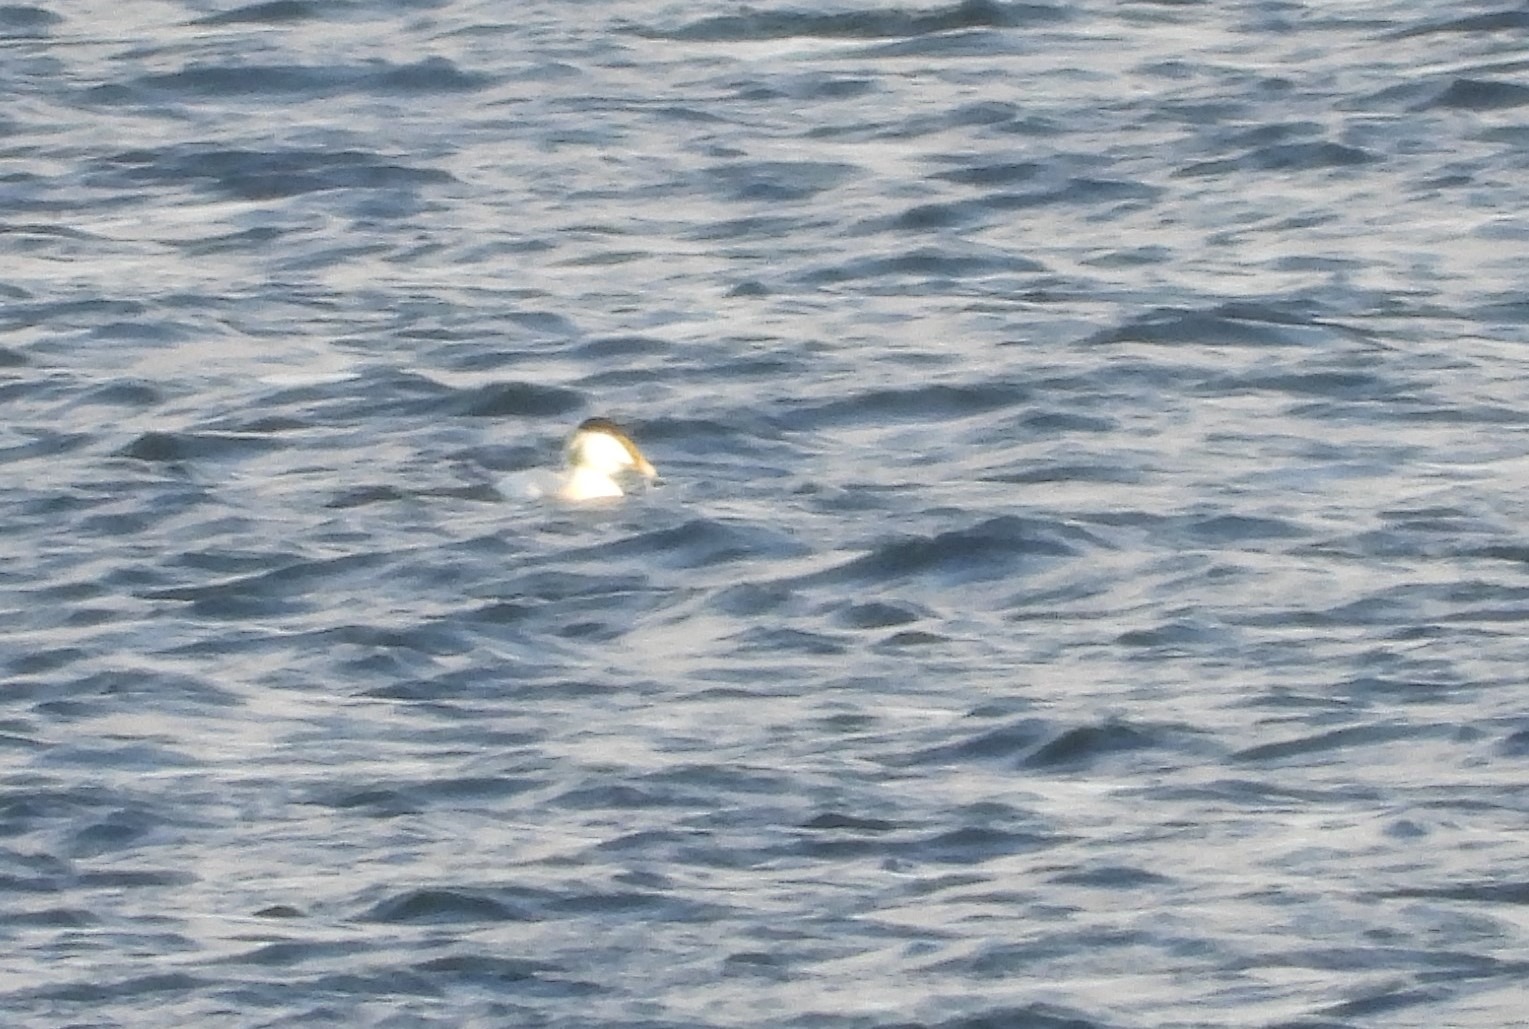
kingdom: Animalia
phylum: Chordata
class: Aves
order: Anseriformes
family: Anatidae
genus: Somateria
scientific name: Somateria mollissima
